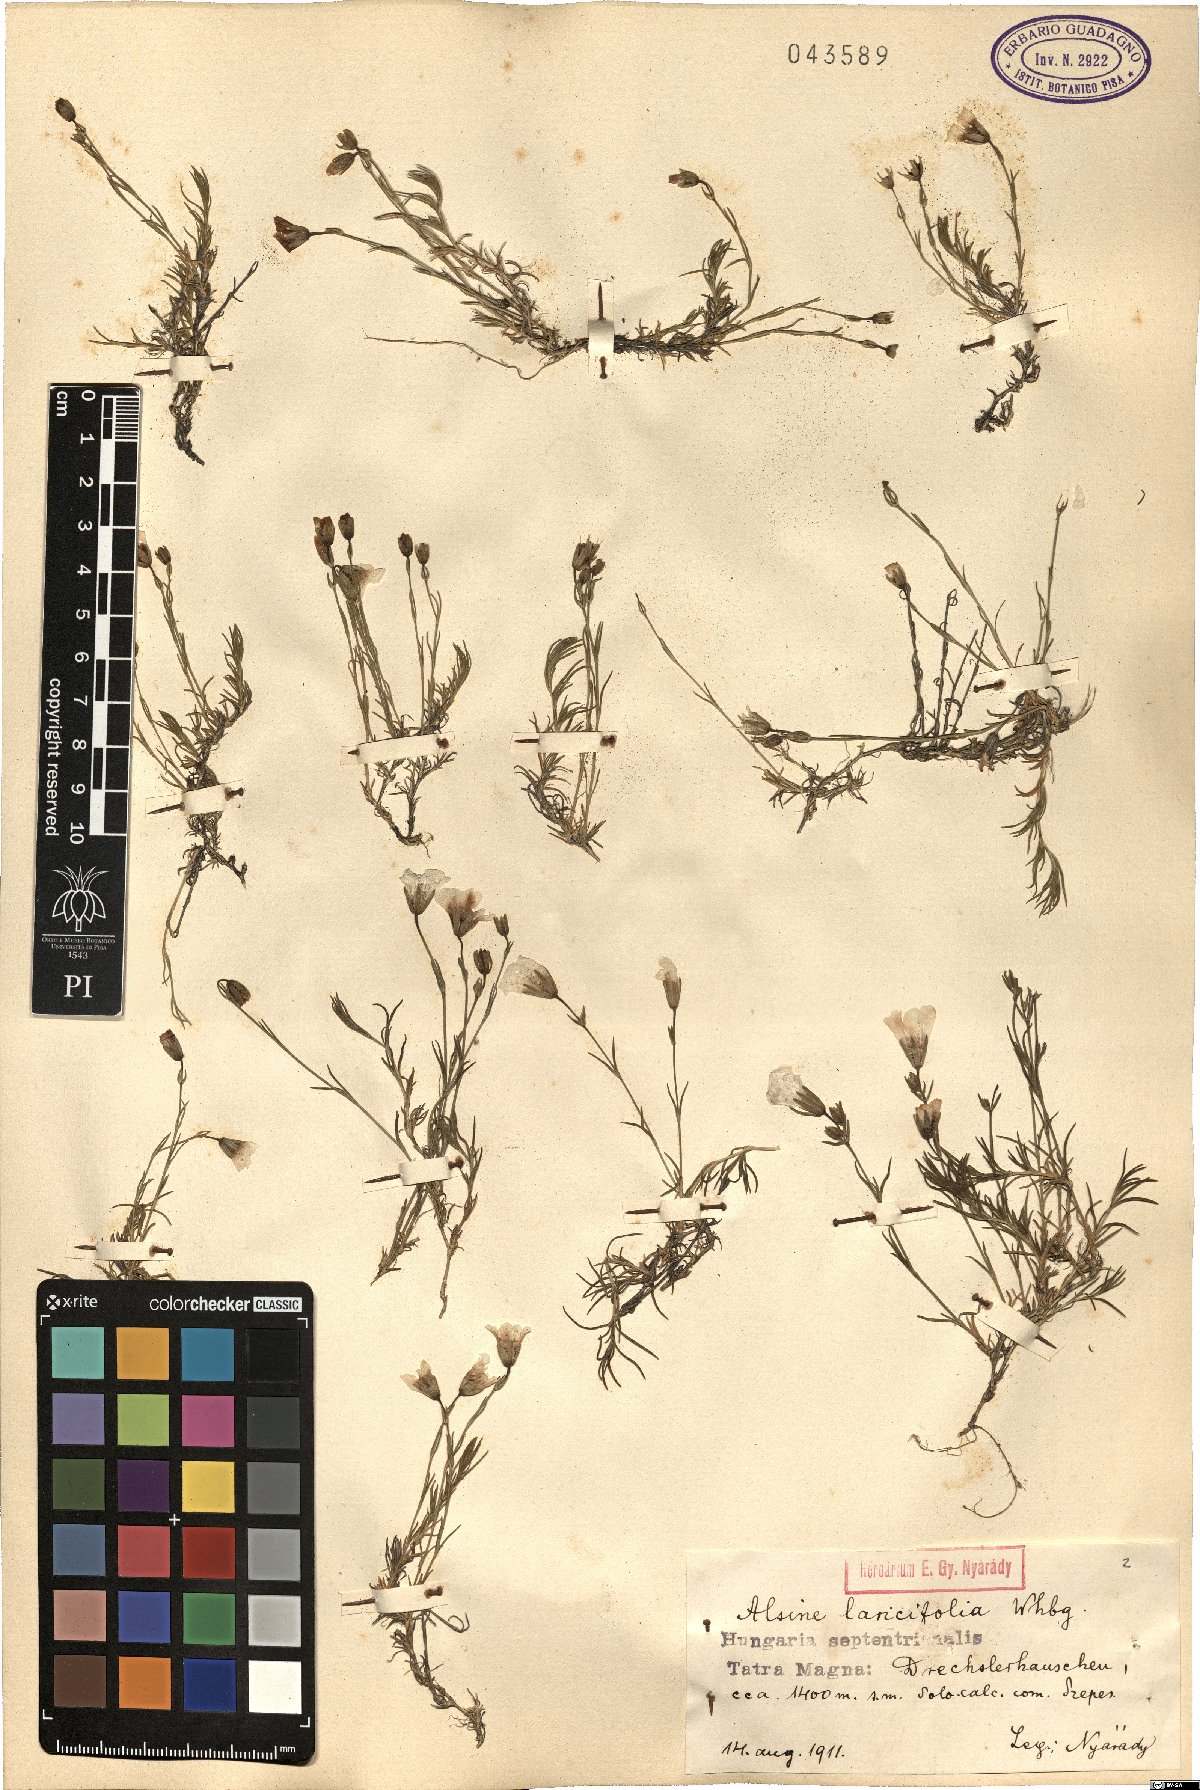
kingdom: Plantae
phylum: Tracheophyta
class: Magnoliopsida
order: Caryophyllales
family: Caryophyllaceae
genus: Cherleria
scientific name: Cherleria laricifolia
